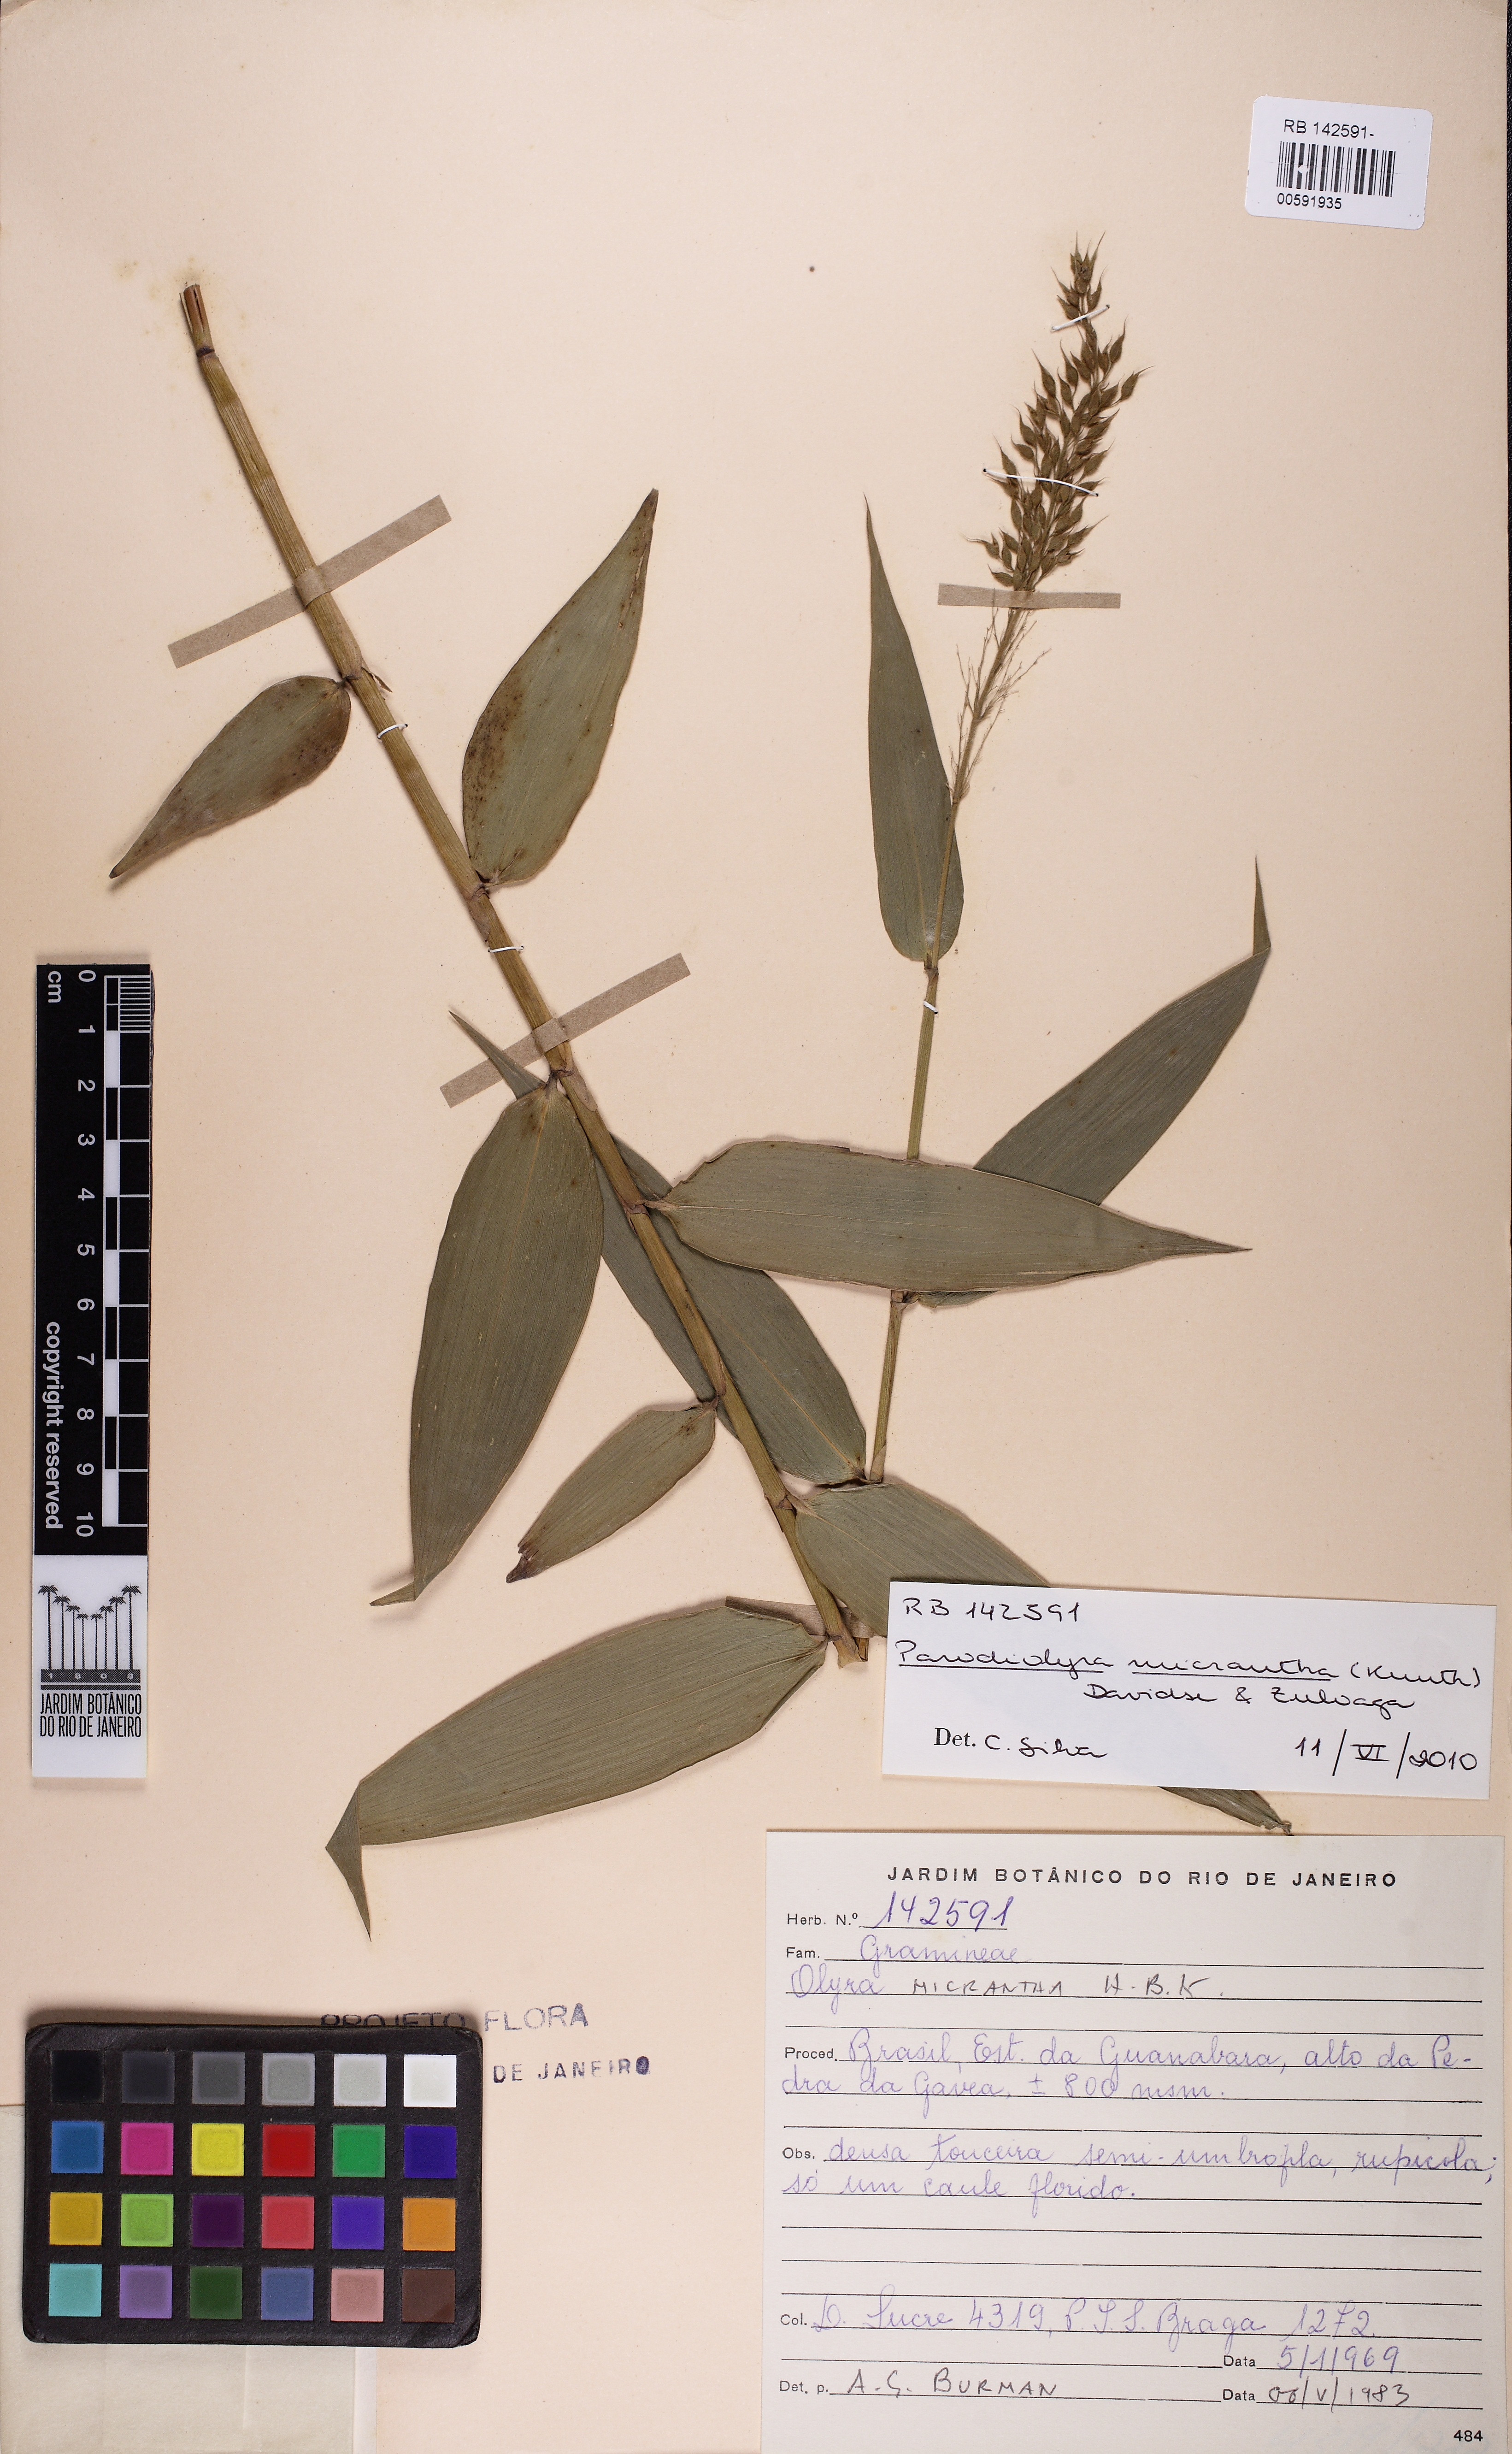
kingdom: Plantae
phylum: Tracheophyta
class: Liliopsida
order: Poales
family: Poaceae
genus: Taquara
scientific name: Taquara micrantha
